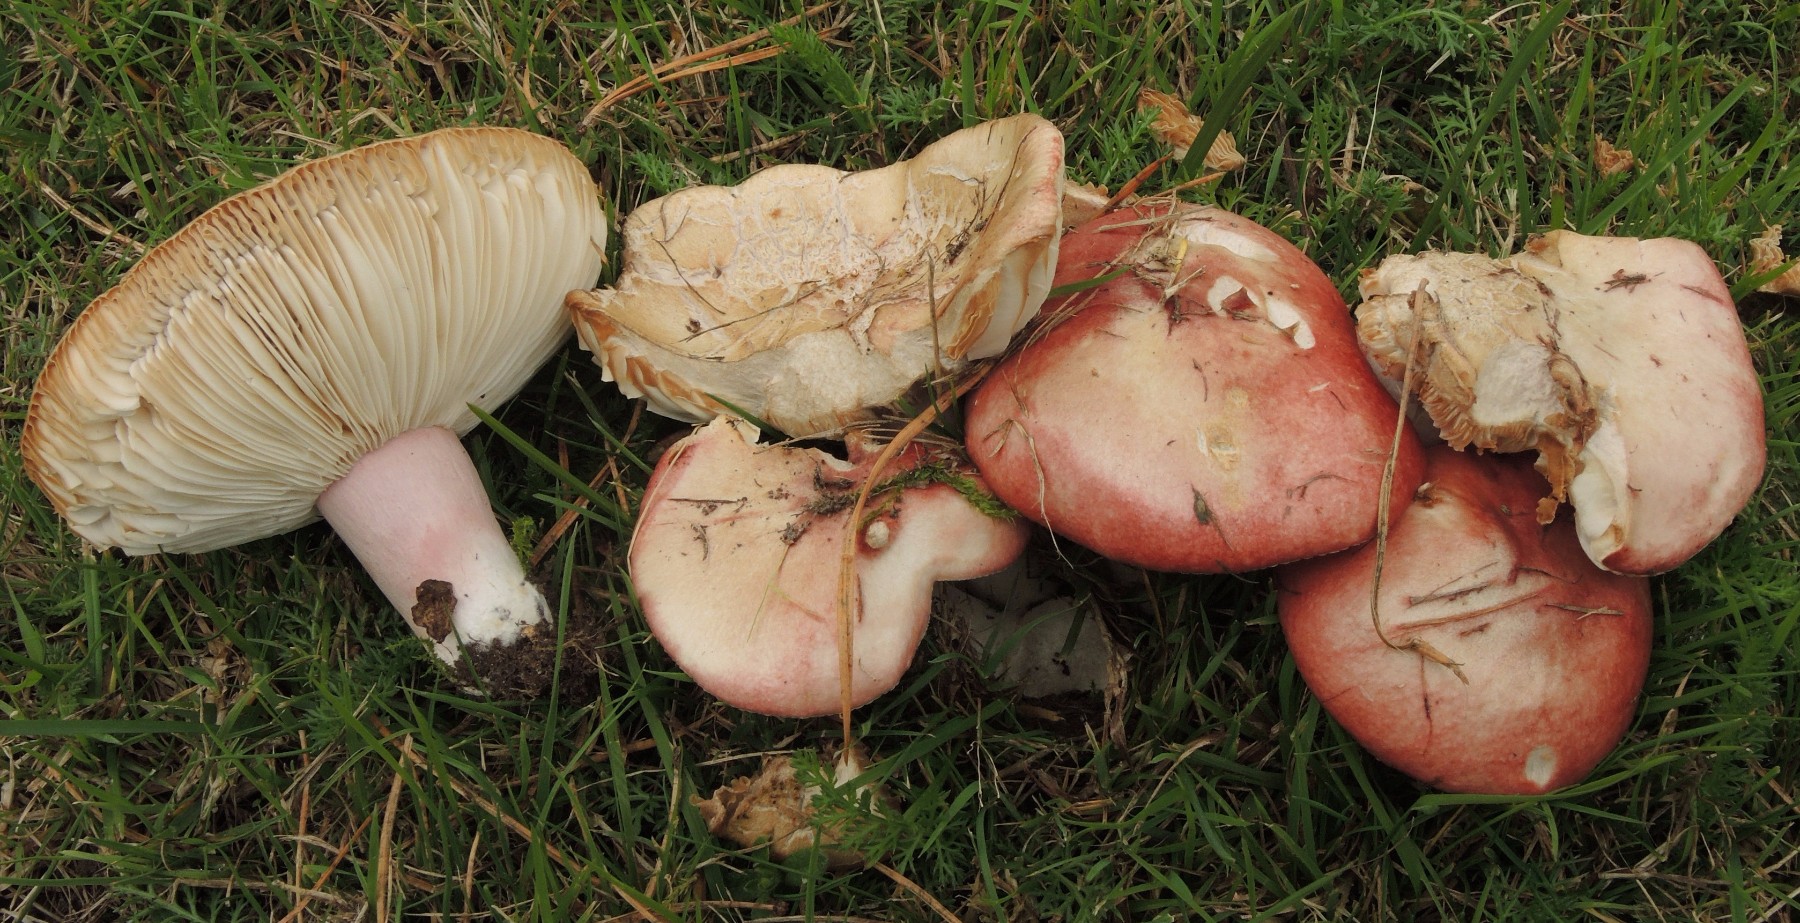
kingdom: Fungi
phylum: Basidiomycota
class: Agaricomycetes
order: Russulales
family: Russulaceae
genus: Russula
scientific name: Russula sanguinea
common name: blodrød skørhat
